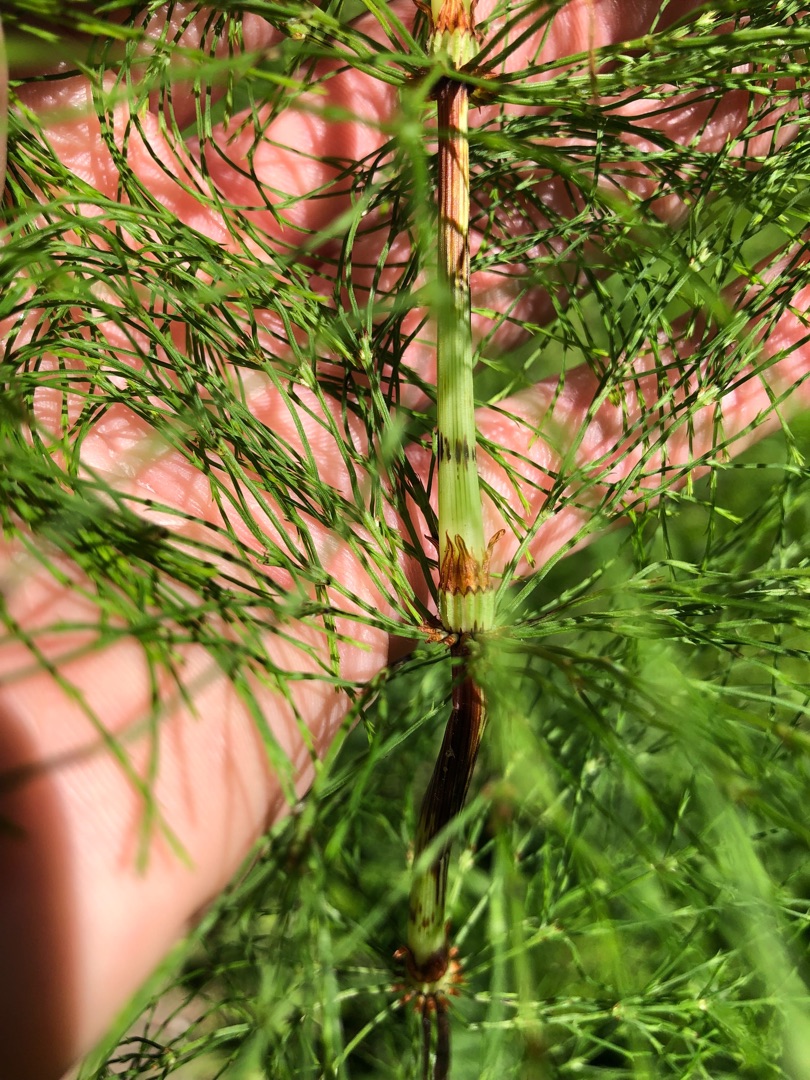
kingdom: Plantae
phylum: Tracheophyta
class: Polypodiopsida
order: Equisetales
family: Equisetaceae
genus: Equisetum
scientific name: Equisetum sylvaticum
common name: Skov-padderok
